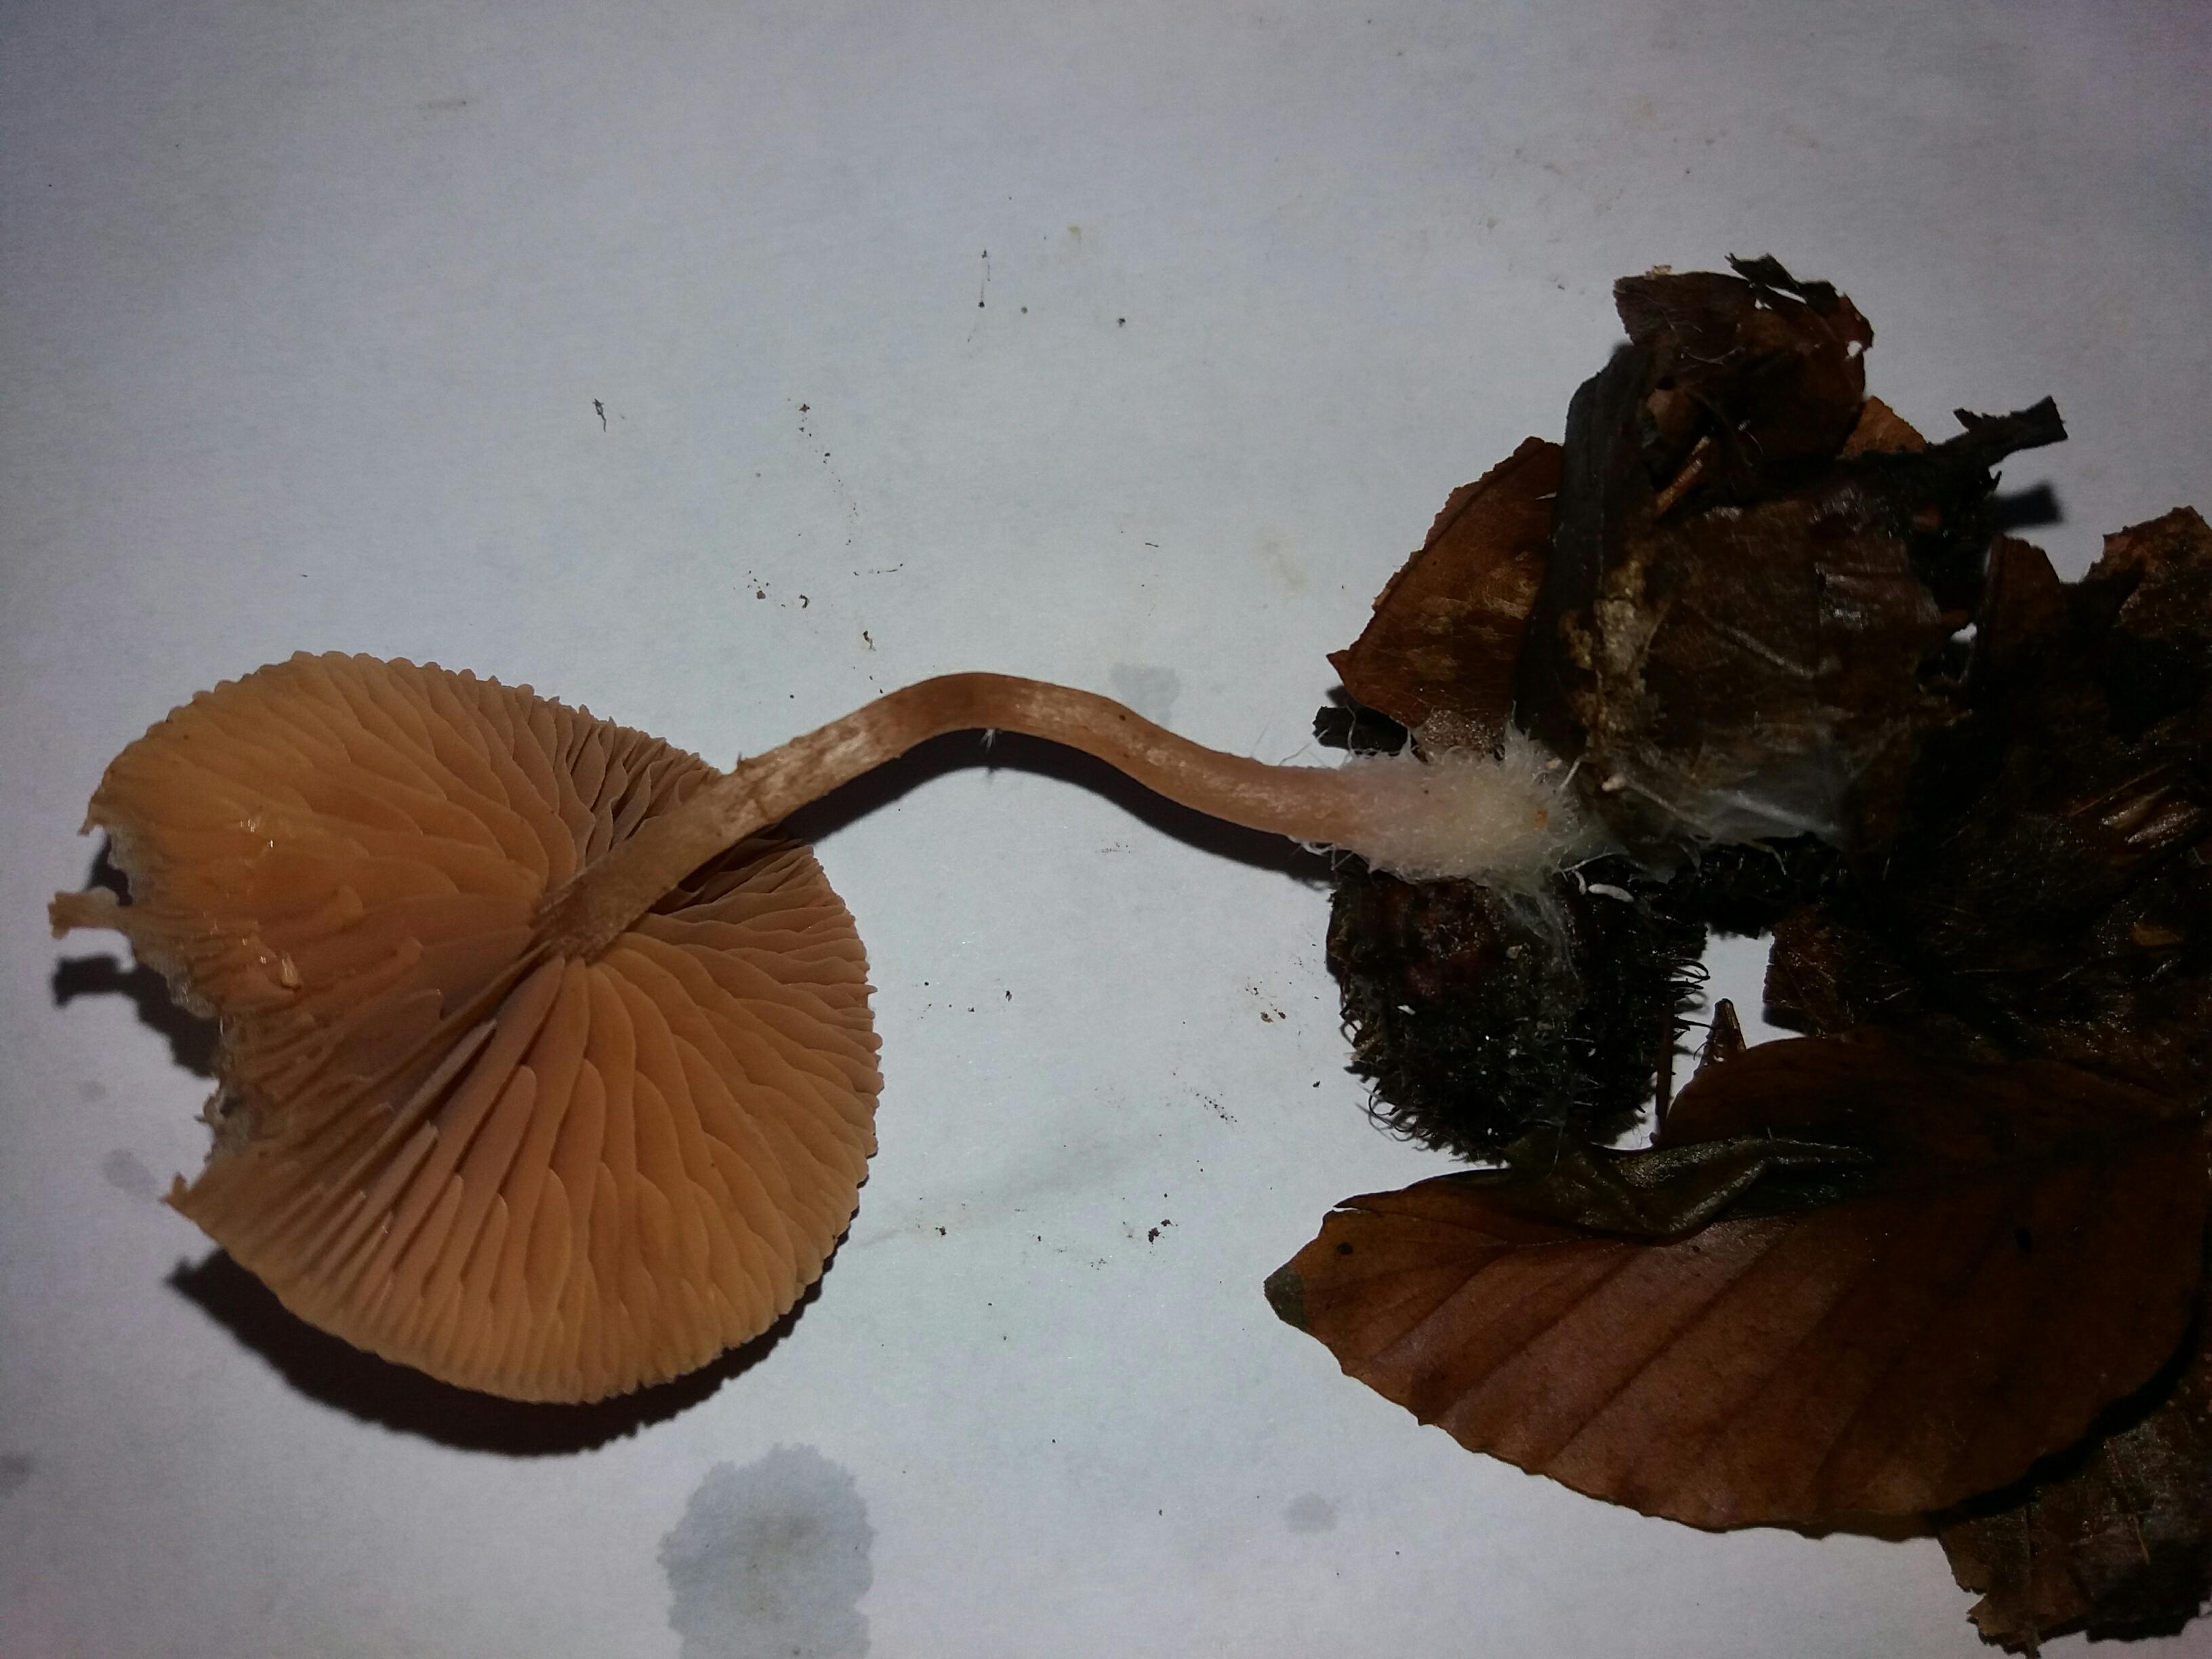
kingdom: Fungi
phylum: Basidiomycota
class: Agaricomycetes
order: Agaricales
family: Tubariaceae
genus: Tubaria
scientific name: Tubaria
